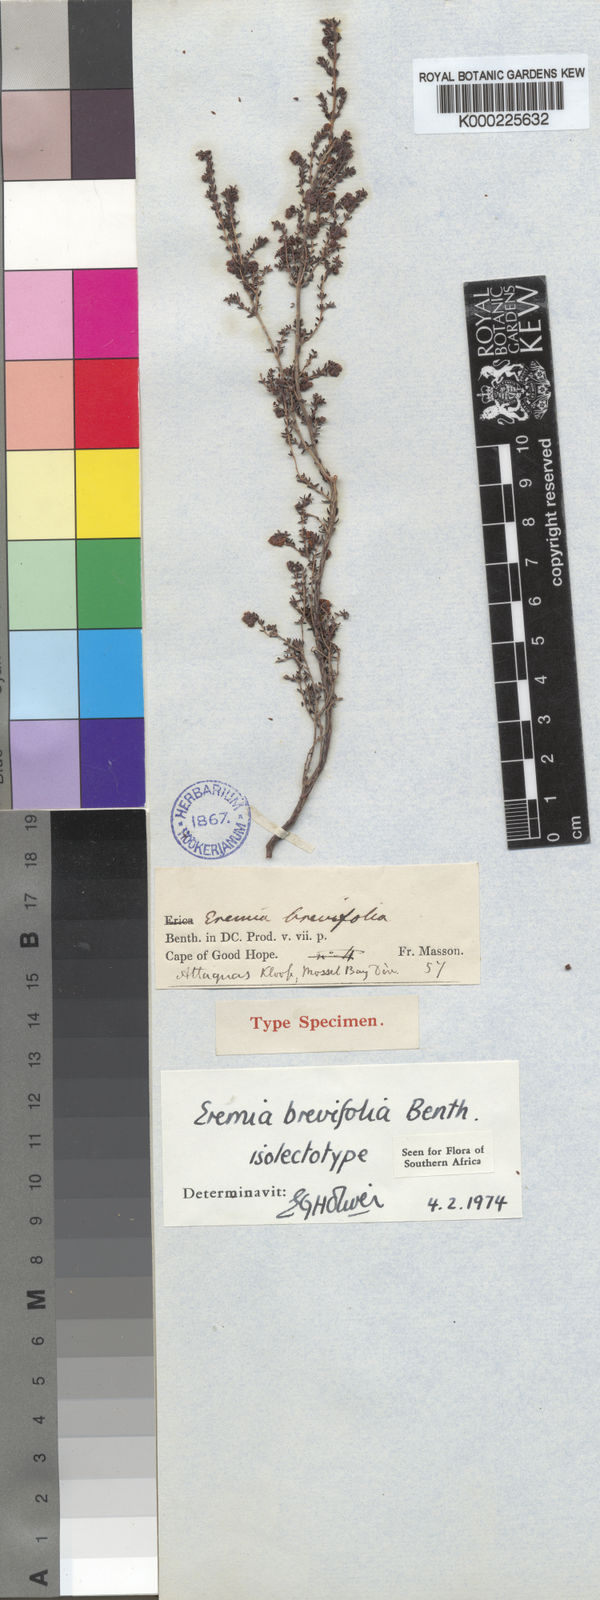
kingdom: Plantae
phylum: Tracheophyta
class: Magnoliopsida
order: Ericales
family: Ericaceae
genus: Erica
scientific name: Erica velatiflora
